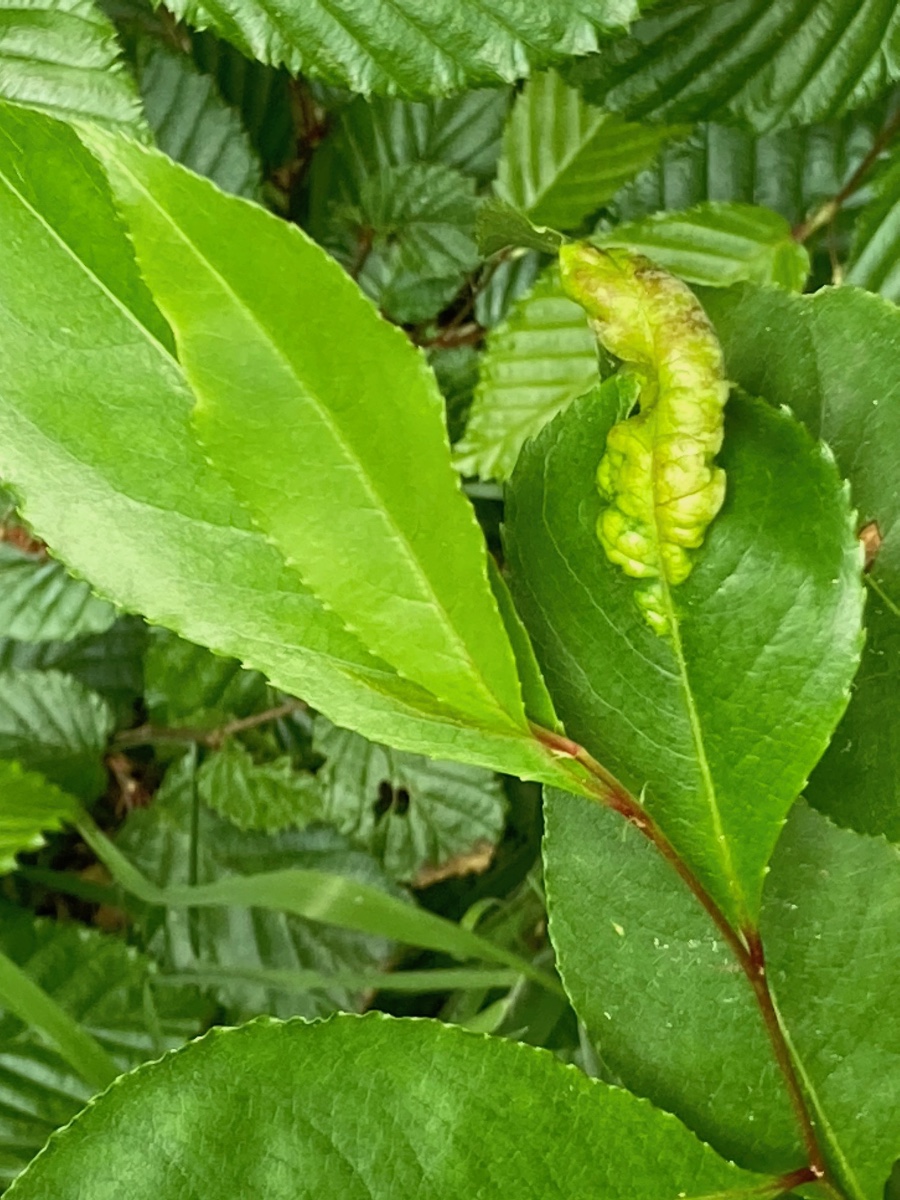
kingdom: Fungi
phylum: Ascomycota
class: Taphrinomycetes
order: Taphrinales
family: Taphrinaceae
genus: Taphrina
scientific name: Taphrina farlowii
